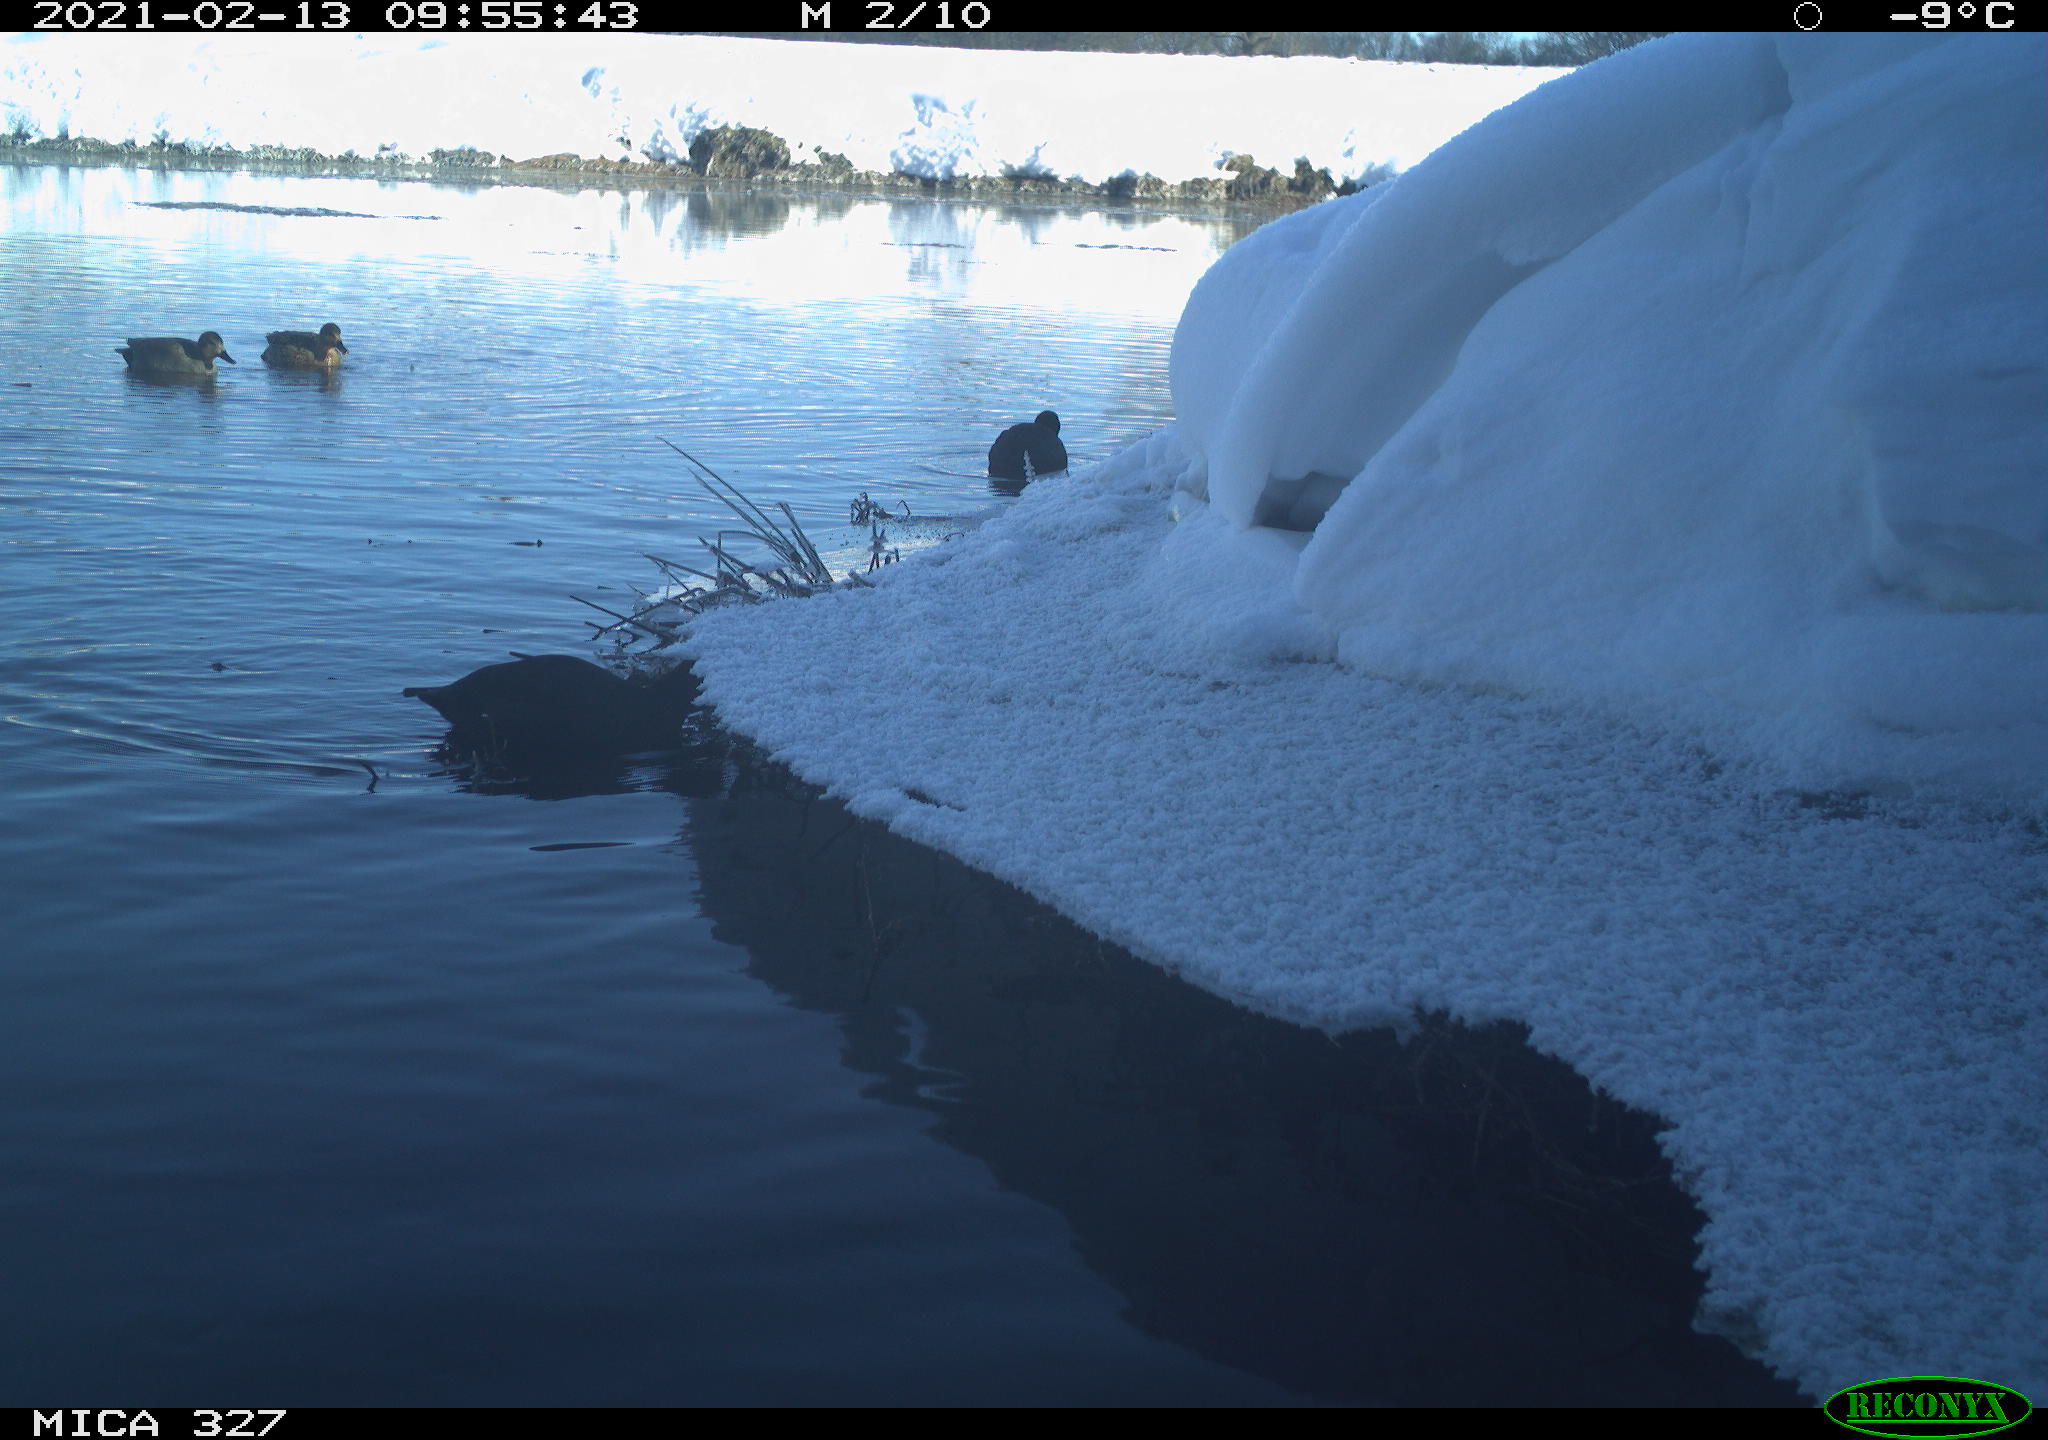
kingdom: Animalia
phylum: Chordata
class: Aves
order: Gruiformes
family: Rallidae
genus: Fulica
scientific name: Fulica atra
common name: Eurasian coot
